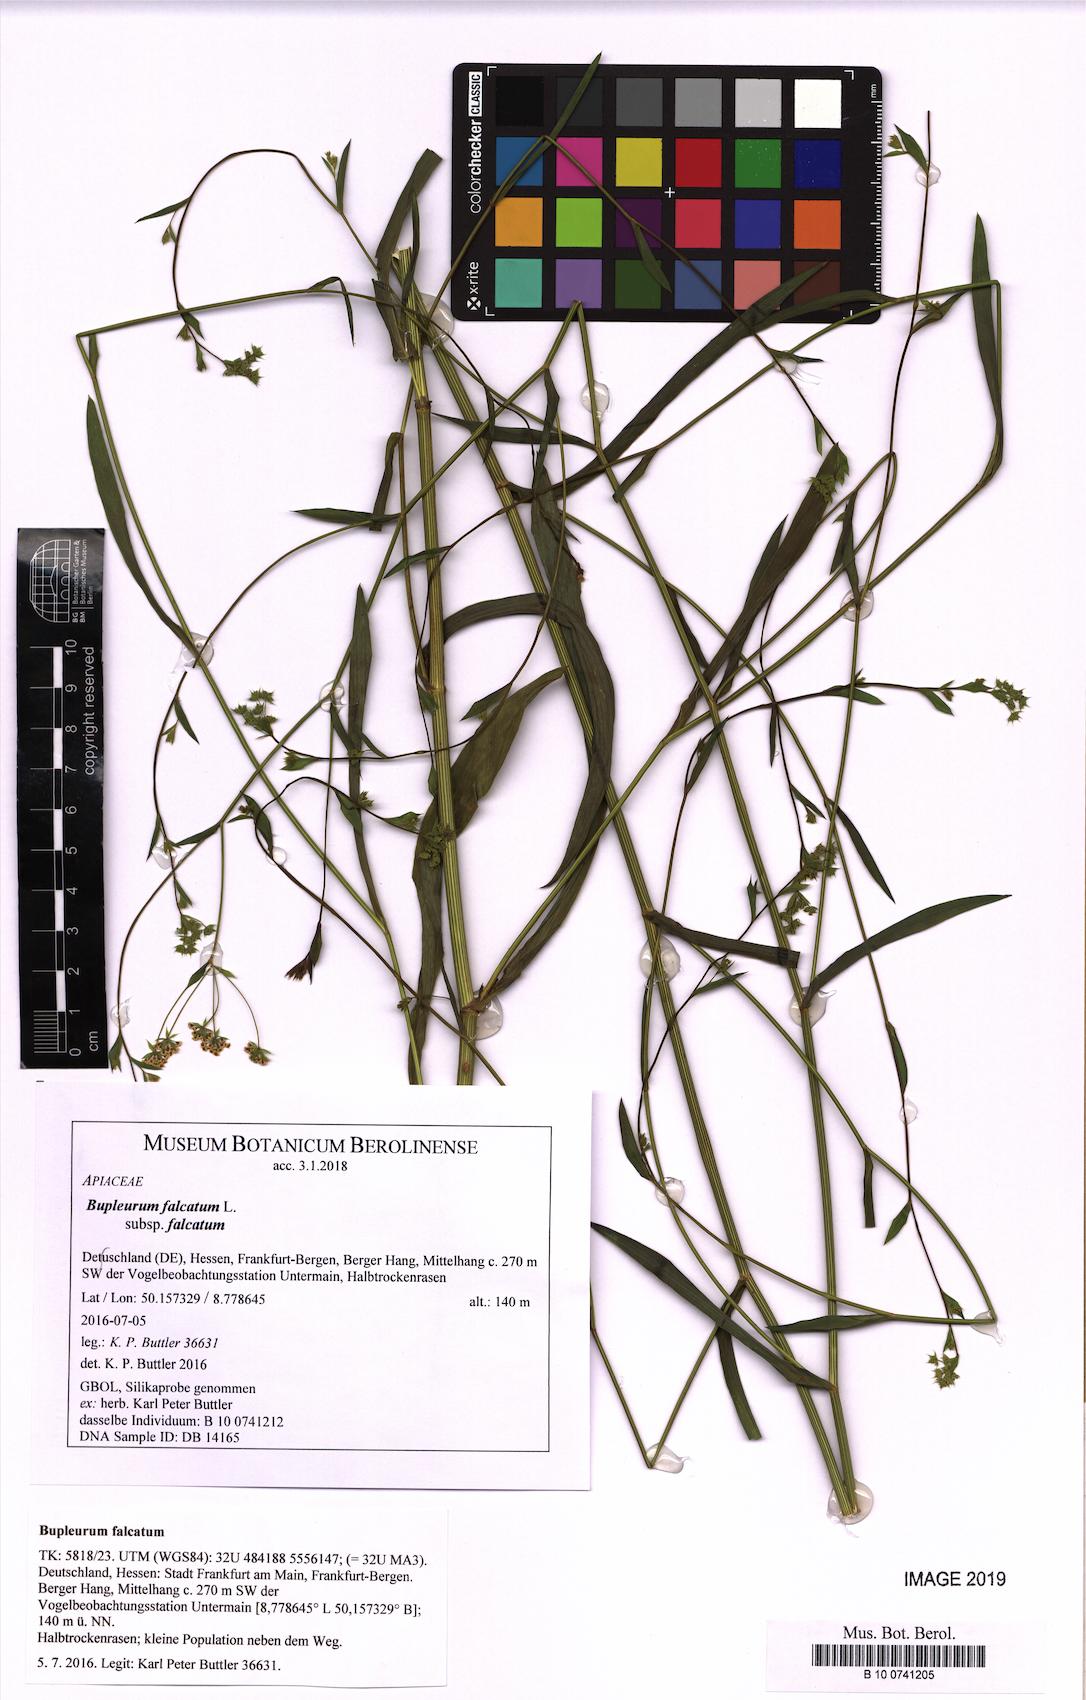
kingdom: Plantae
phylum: Tracheophyta
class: Magnoliopsida
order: Apiales
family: Apiaceae
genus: Bupleurum
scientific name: Bupleurum falcatum
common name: Sickle-leaved hare's-ear
